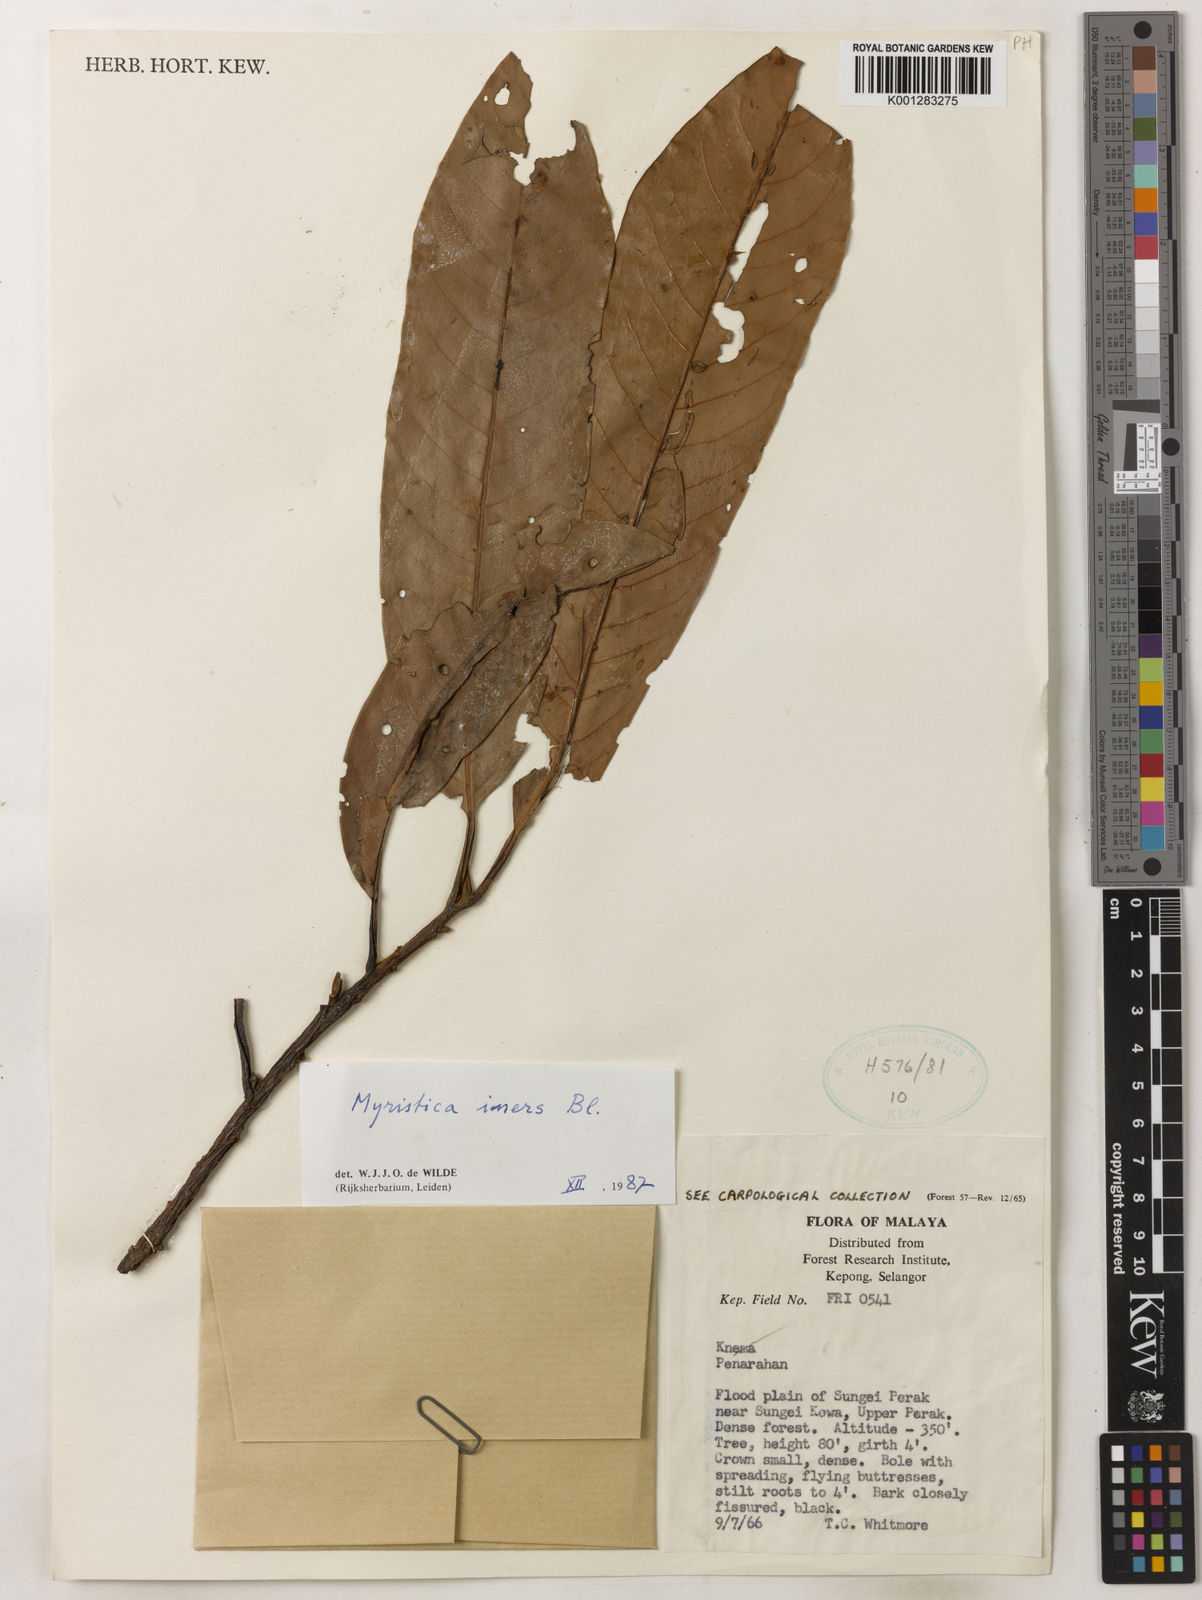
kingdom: Plantae
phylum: Tracheophyta
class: Magnoliopsida
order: Magnoliales
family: Myristicaceae
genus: Myristica
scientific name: Myristica iners
